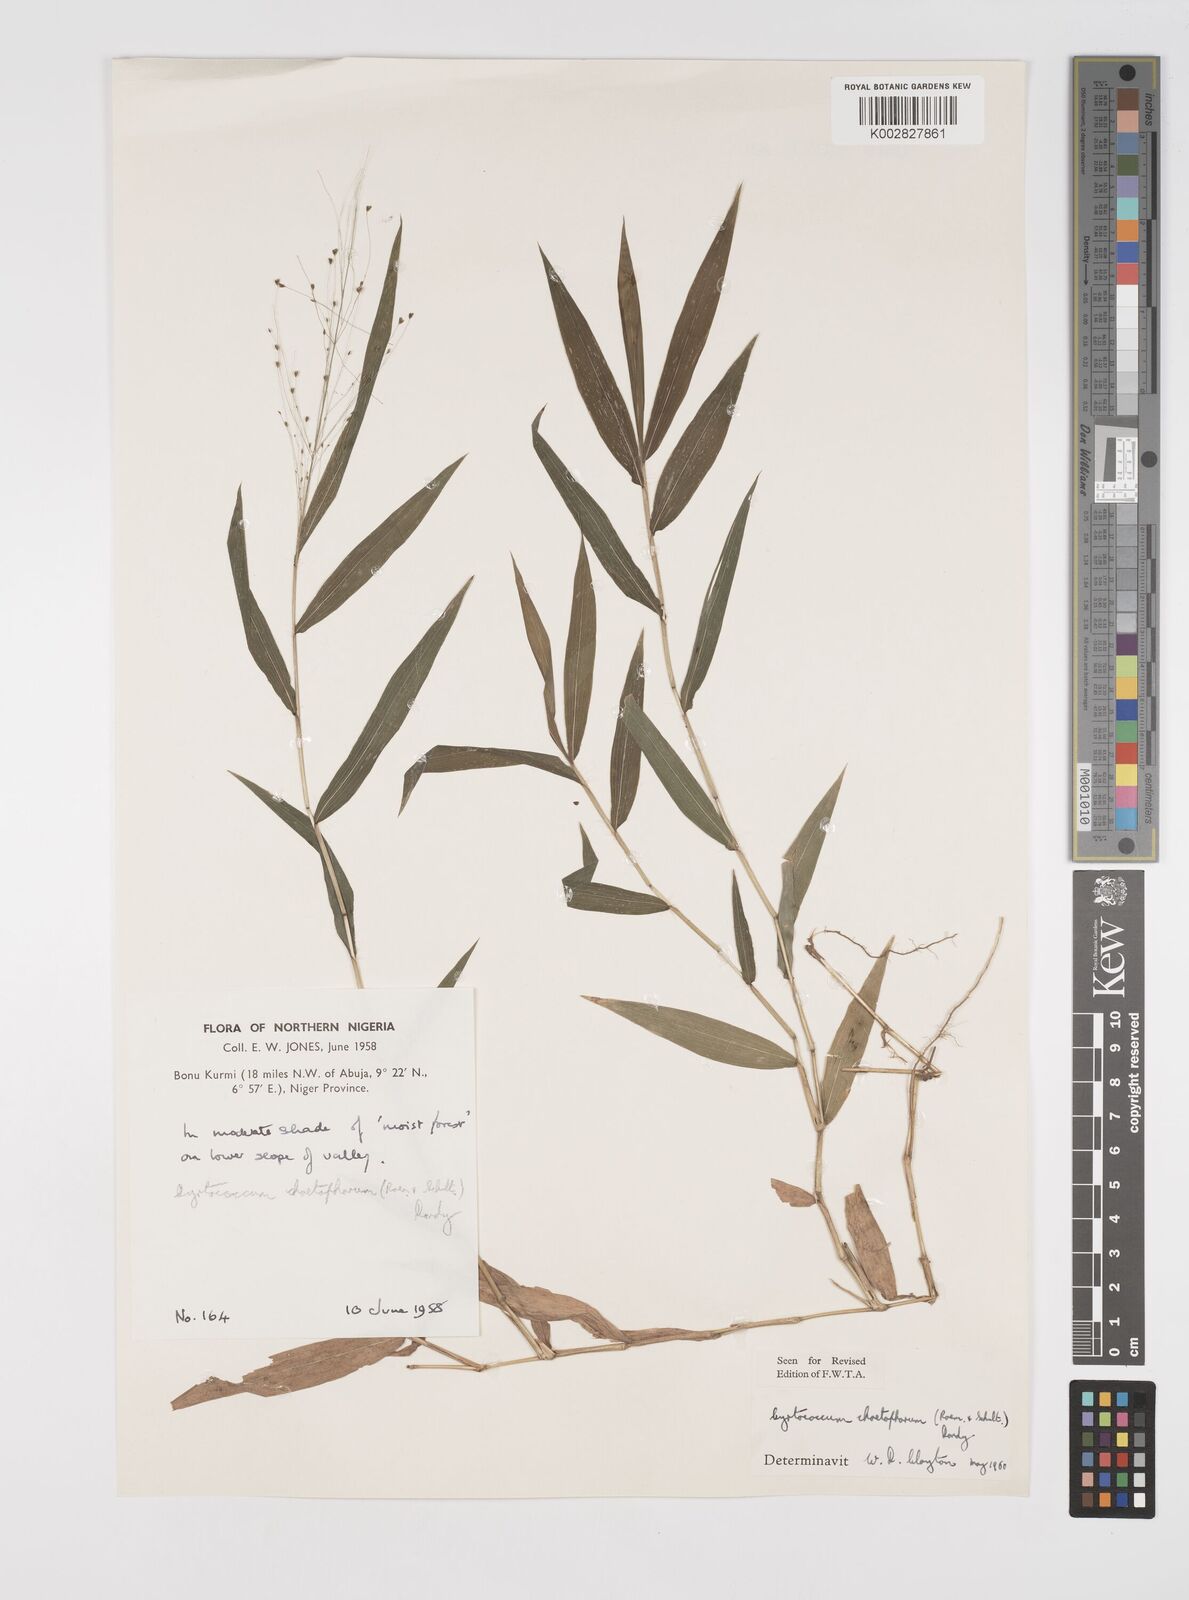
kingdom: Plantae
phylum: Tracheophyta
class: Liliopsida
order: Poales
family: Poaceae
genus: Cyrtococcum
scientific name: Cyrtococcum chaetophoron
